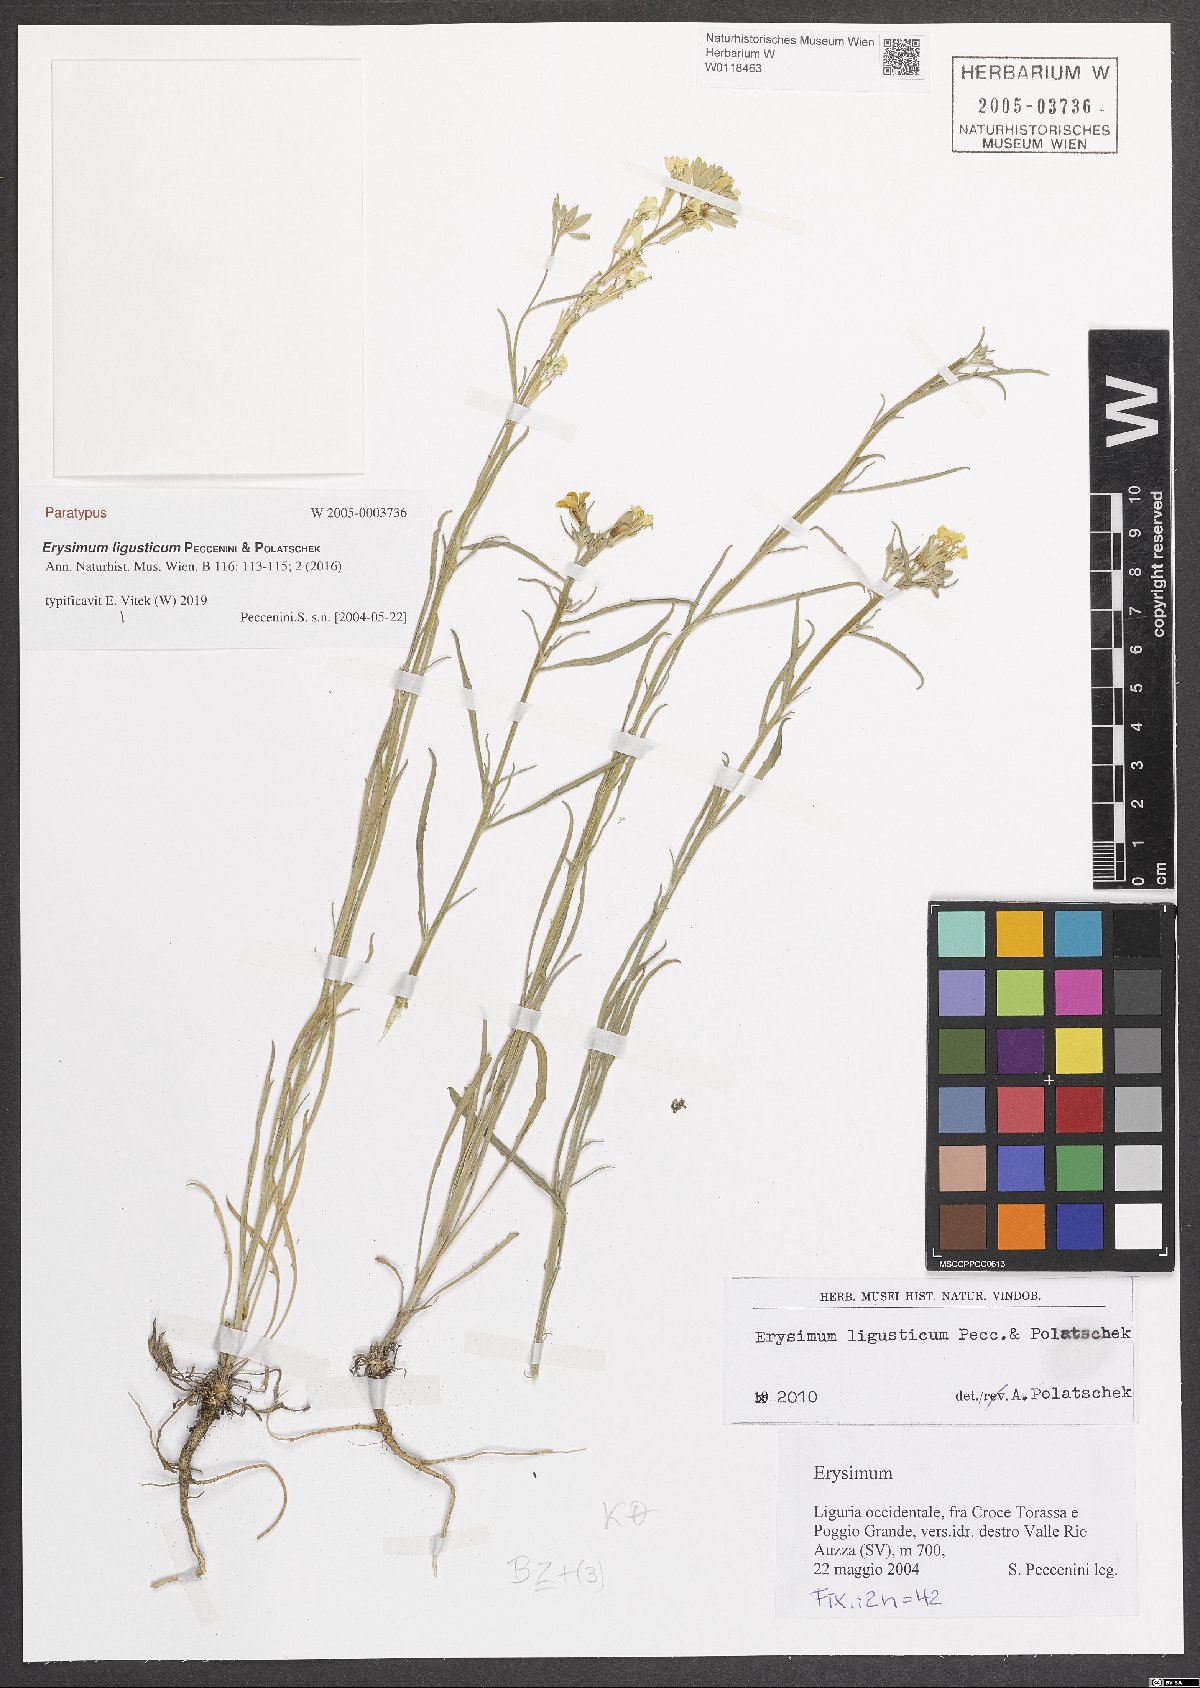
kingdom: Plantae
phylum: Tracheophyta
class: Magnoliopsida
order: Brassicales
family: Brassicaceae
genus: Erysimum
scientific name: Erysimum ligusticum
